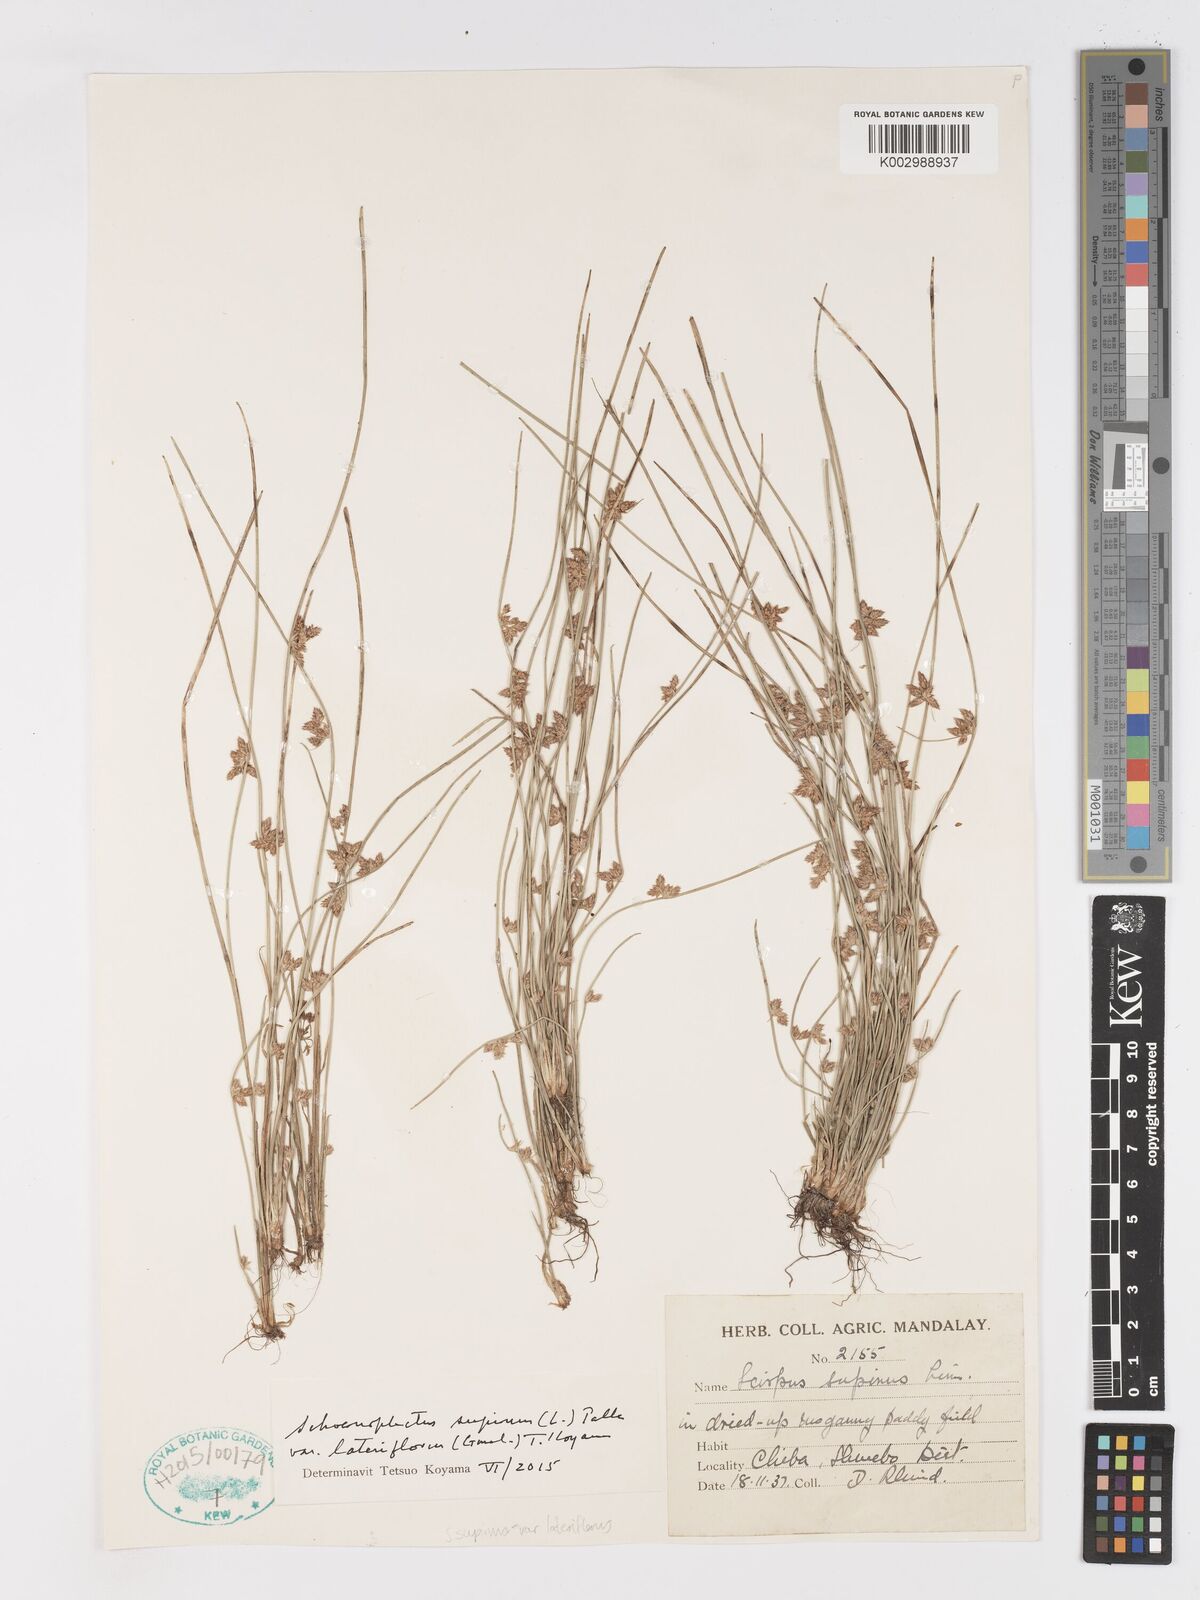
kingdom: Plantae
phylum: Tracheophyta
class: Liliopsida
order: Poales
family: Cyperaceae
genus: Schoenoplectiella
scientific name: Schoenoplectiella lateriflora
